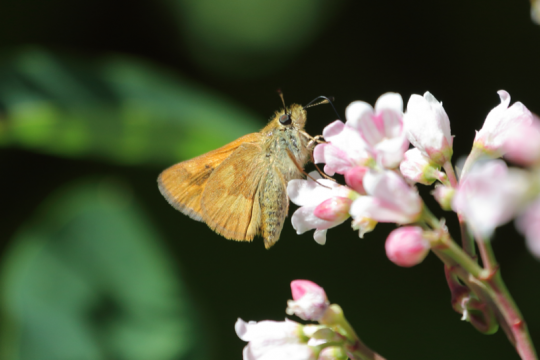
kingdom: Animalia
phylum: Arthropoda
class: Insecta
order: Lepidoptera
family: Hesperiidae
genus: Ochlodes
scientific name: Ochlodes sylvanoides
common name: Woodland Skipper
